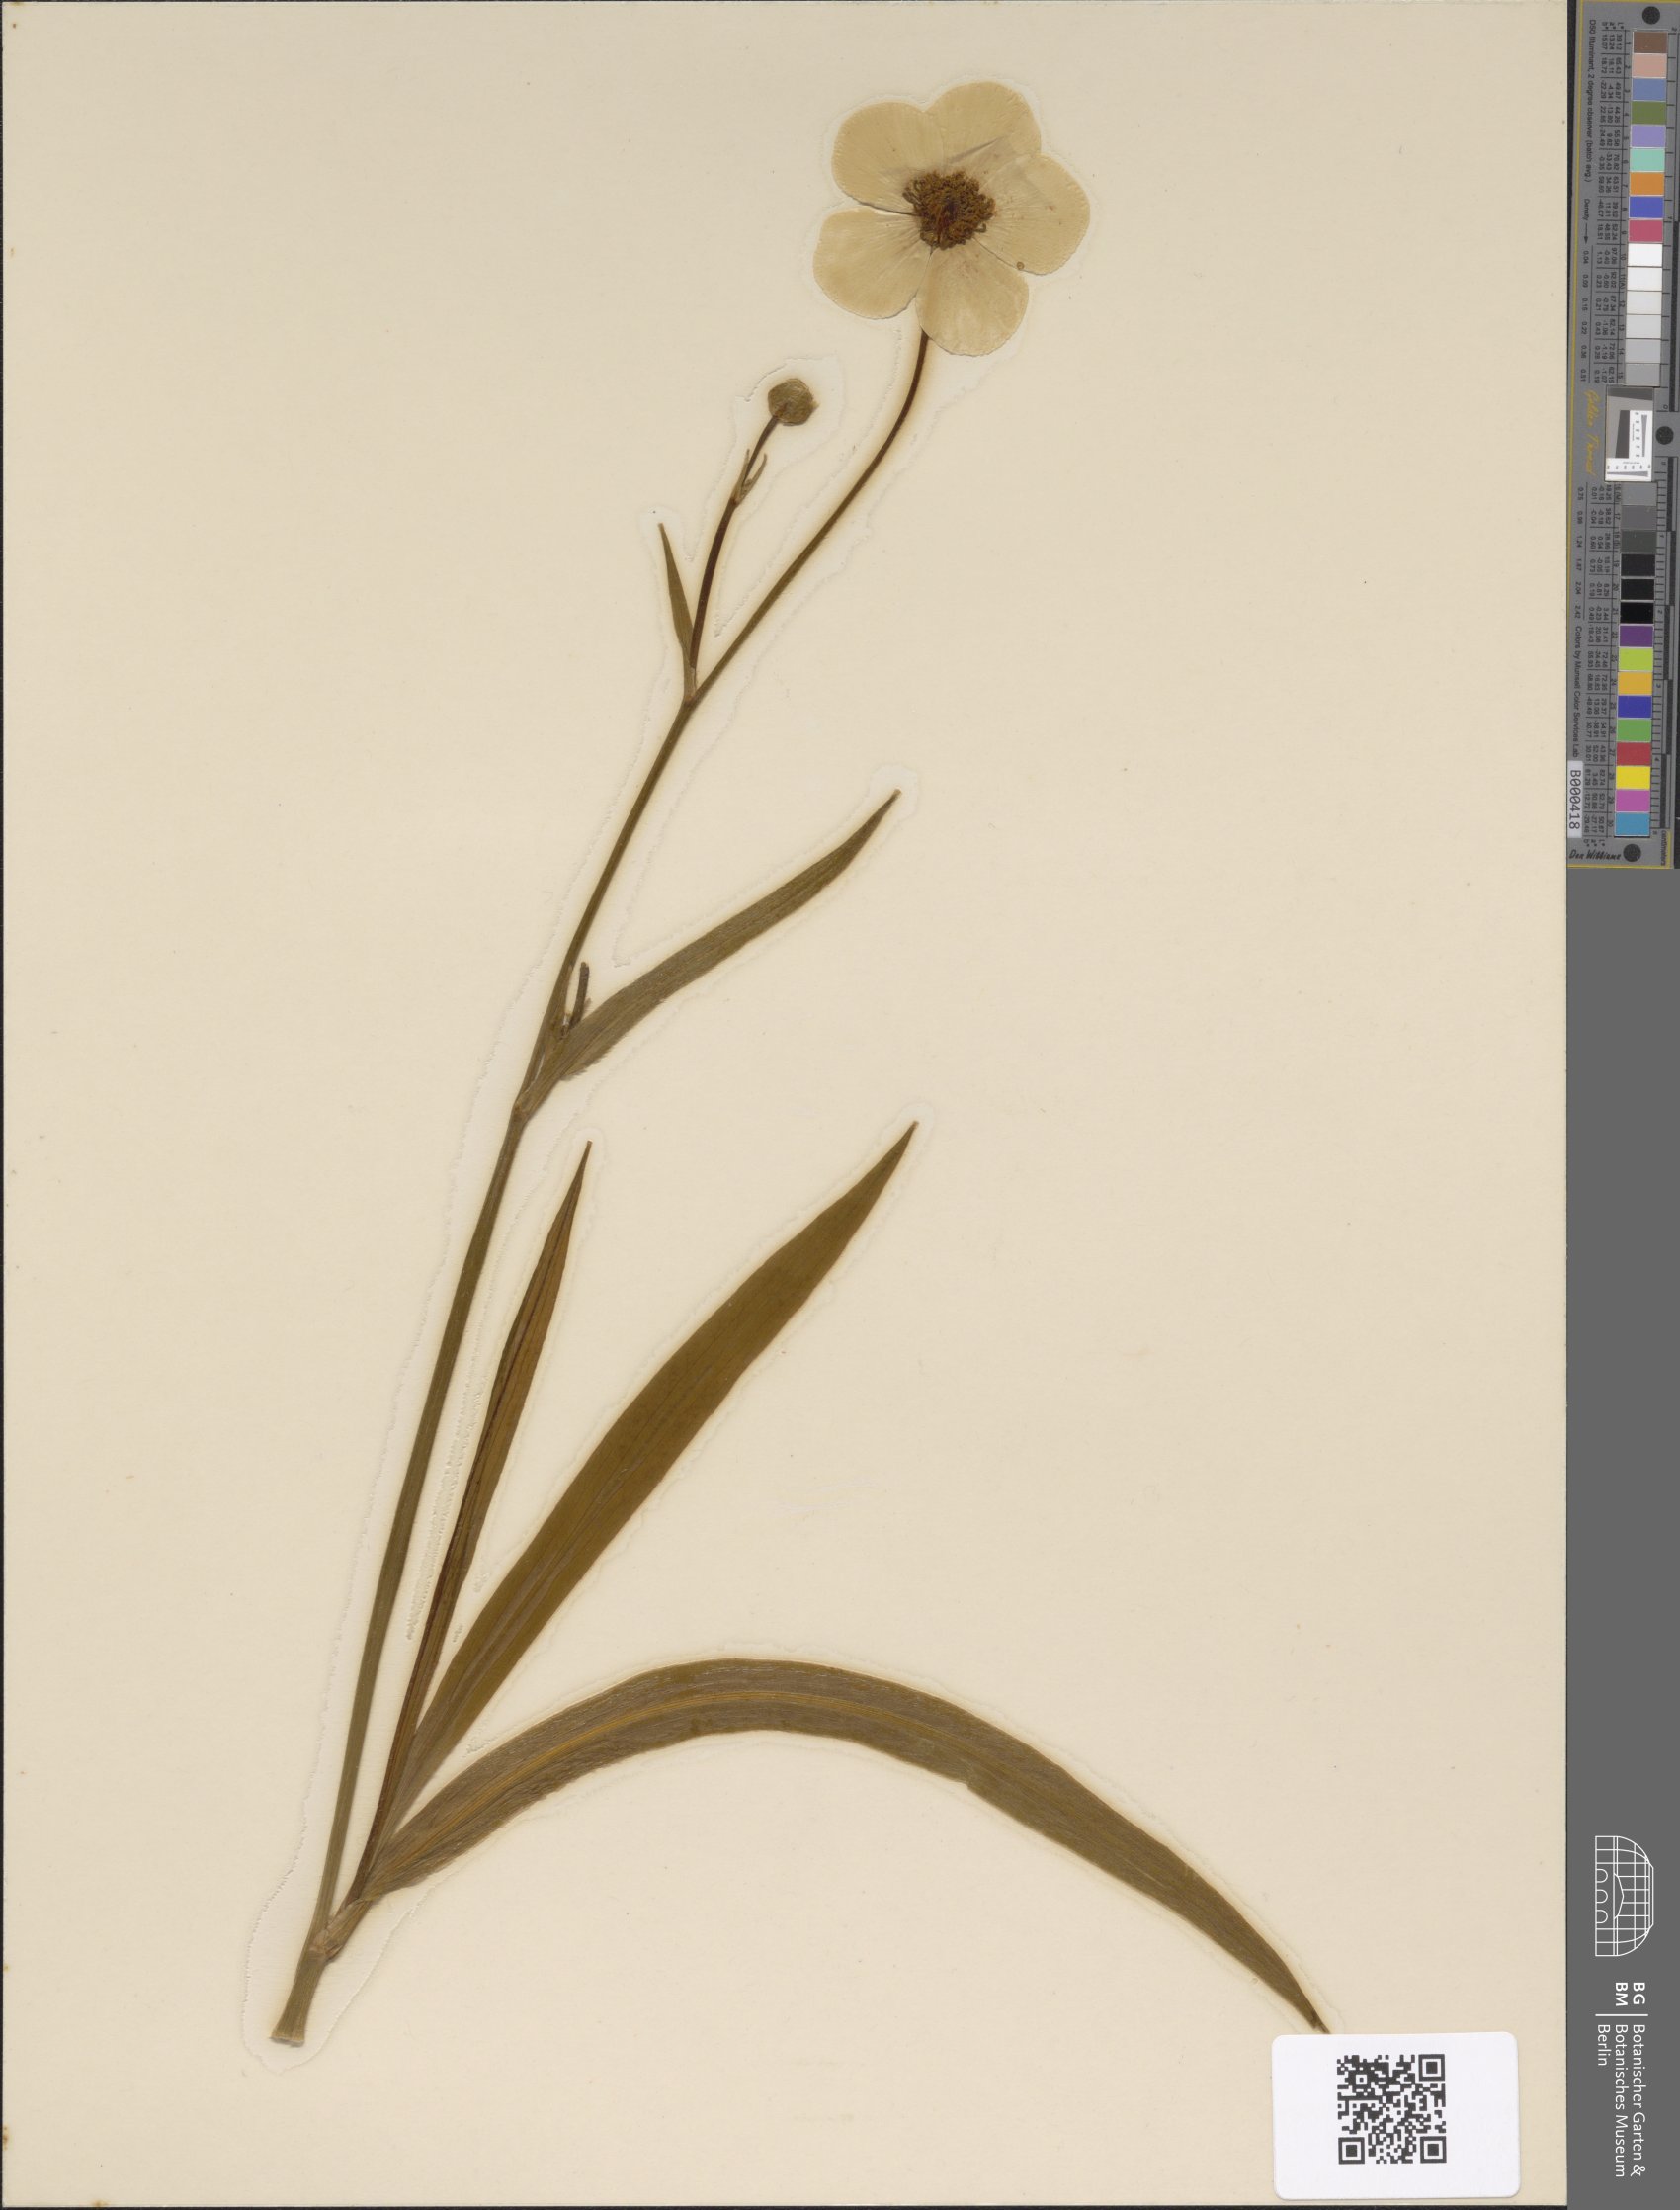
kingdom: Plantae
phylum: Tracheophyta
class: Magnoliopsida
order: Ranunculales
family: Ranunculaceae
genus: Ranunculus
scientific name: Ranunculus lingua
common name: Greater spearwort
